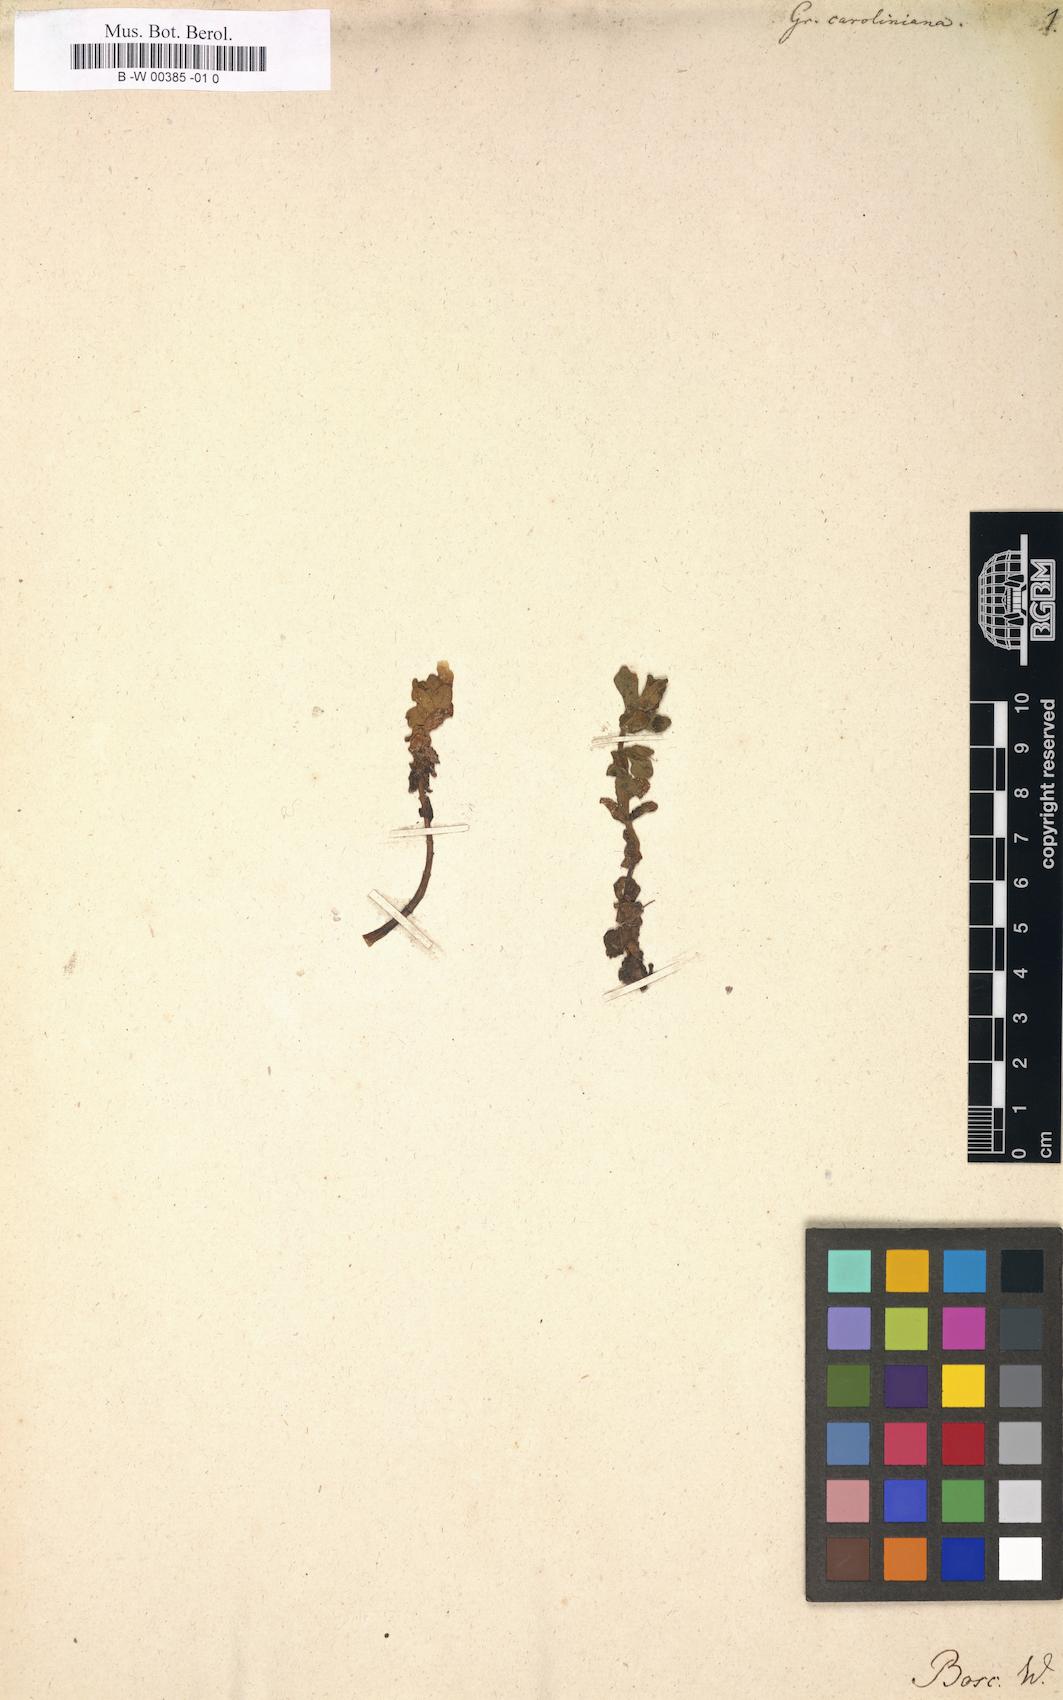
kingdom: Plantae
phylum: Tracheophyta
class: Magnoliopsida
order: Lamiales
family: Plantaginaceae
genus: Gratiola
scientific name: Gratiola
